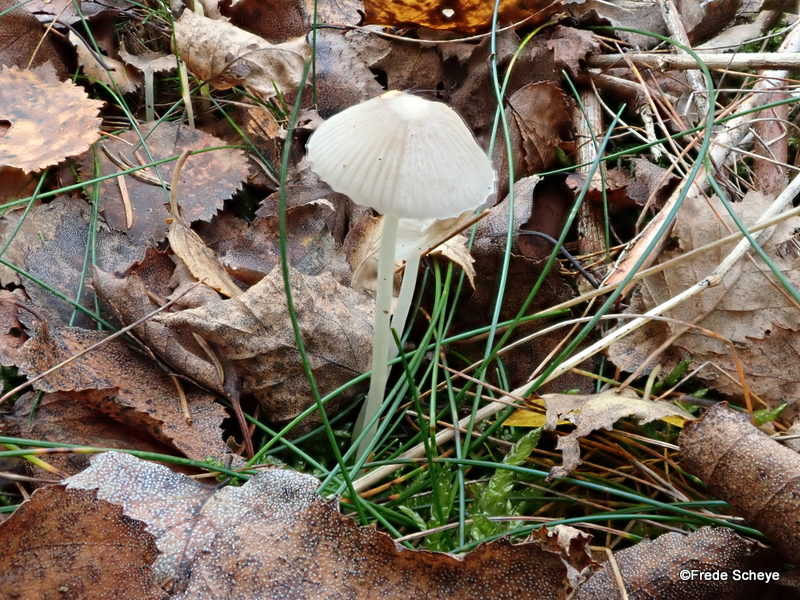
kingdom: Fungi
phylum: Basidiomycota
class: Agaricomycetes
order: Agaricales
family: Mycenaceae
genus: Mycena
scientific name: Mycena epipterygia
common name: gulstokket huesvamp
